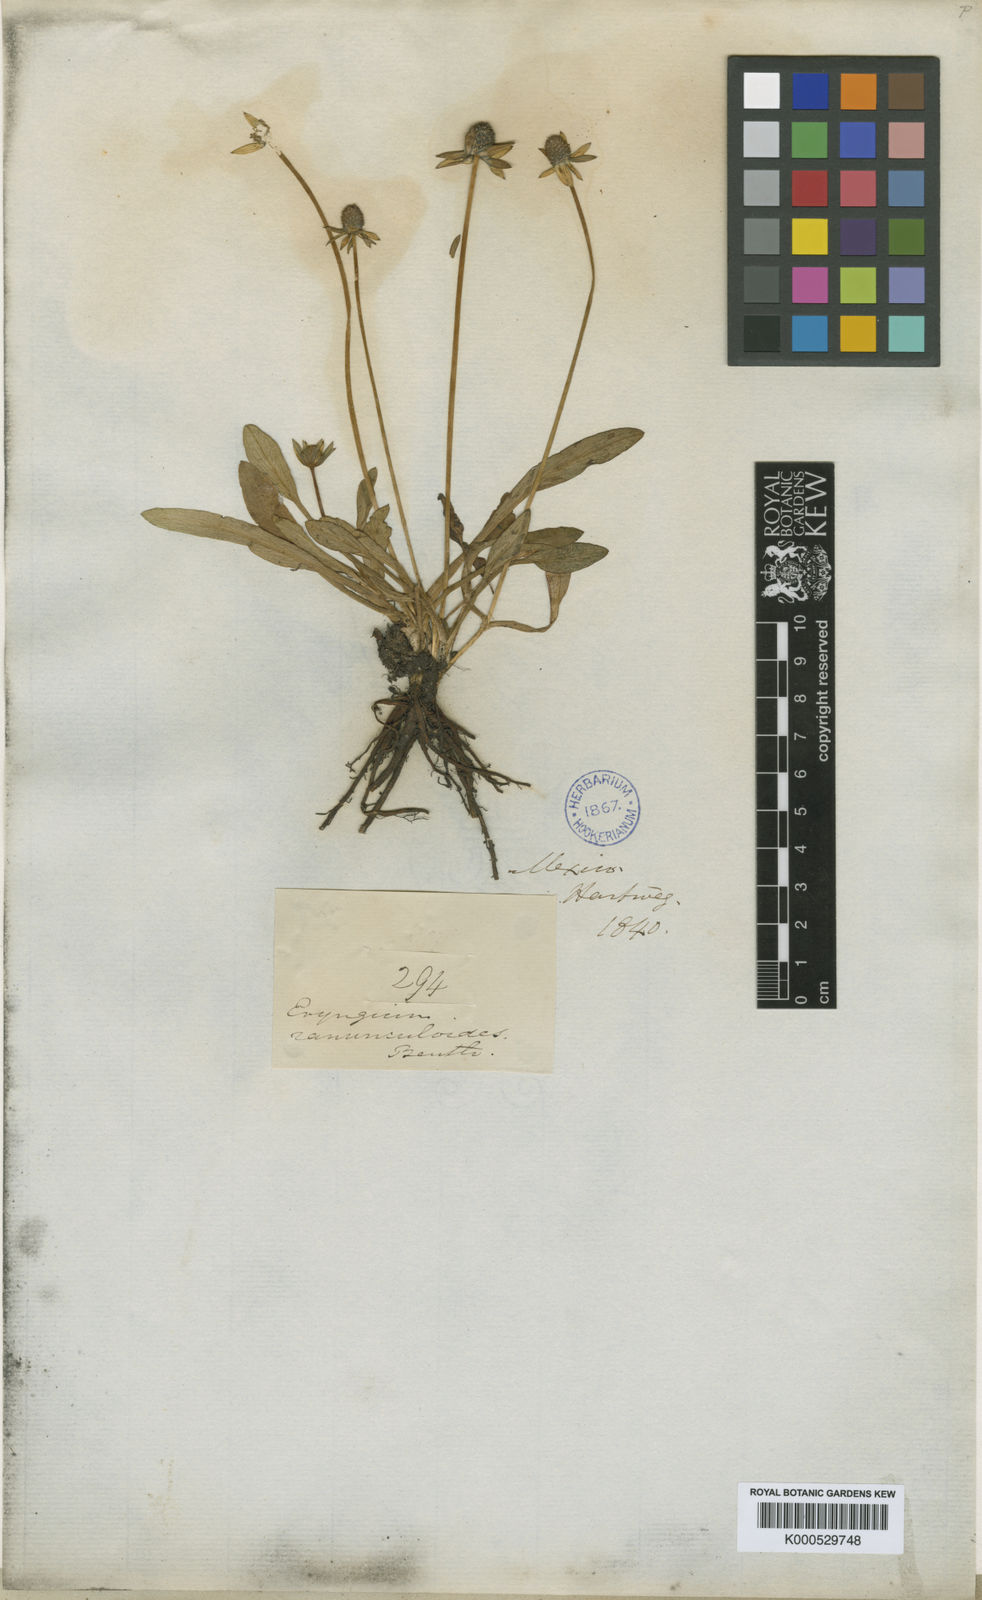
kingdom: Plantae
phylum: Tracheophyta
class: Magnoliopsida
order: Apiales
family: Apiaceae
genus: Eryngium
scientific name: Eryngium subacaule
